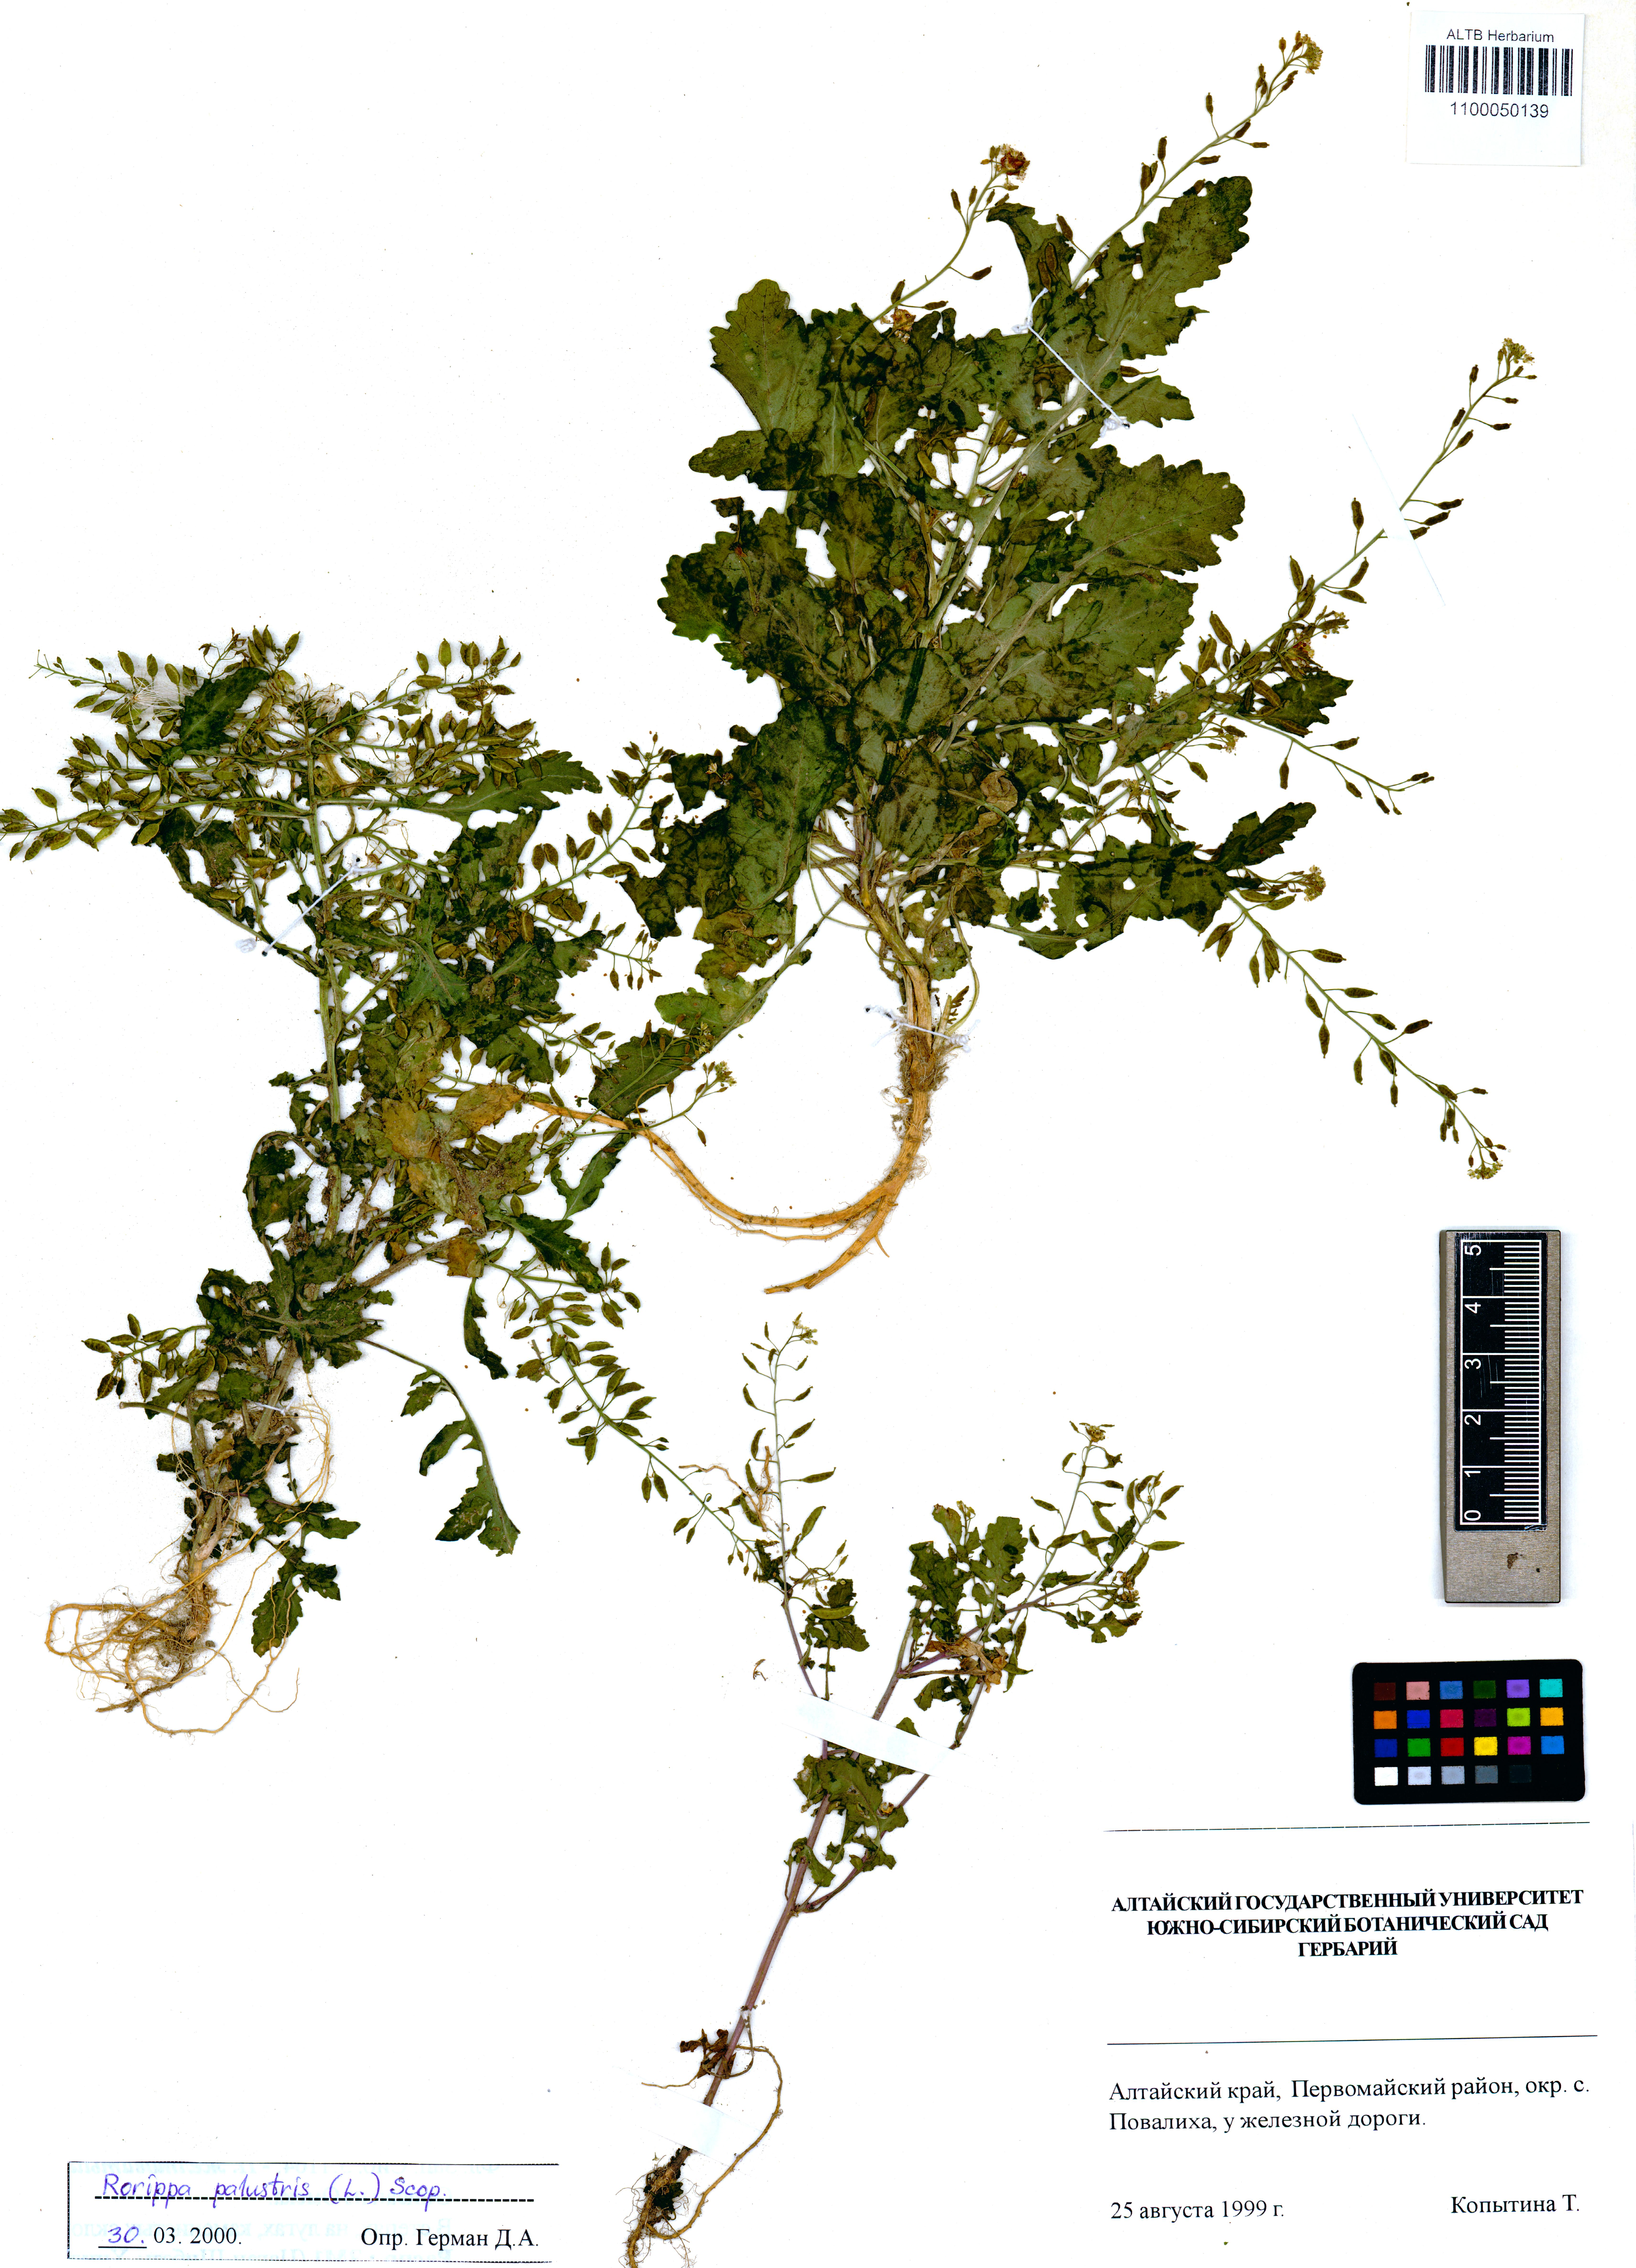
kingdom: Plantae
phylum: Tracheophyta
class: Magnoliopsida
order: Brassicales
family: Brassicaceae
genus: Rorippa
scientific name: Rorippa palustris
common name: Marsh yellow-cress
